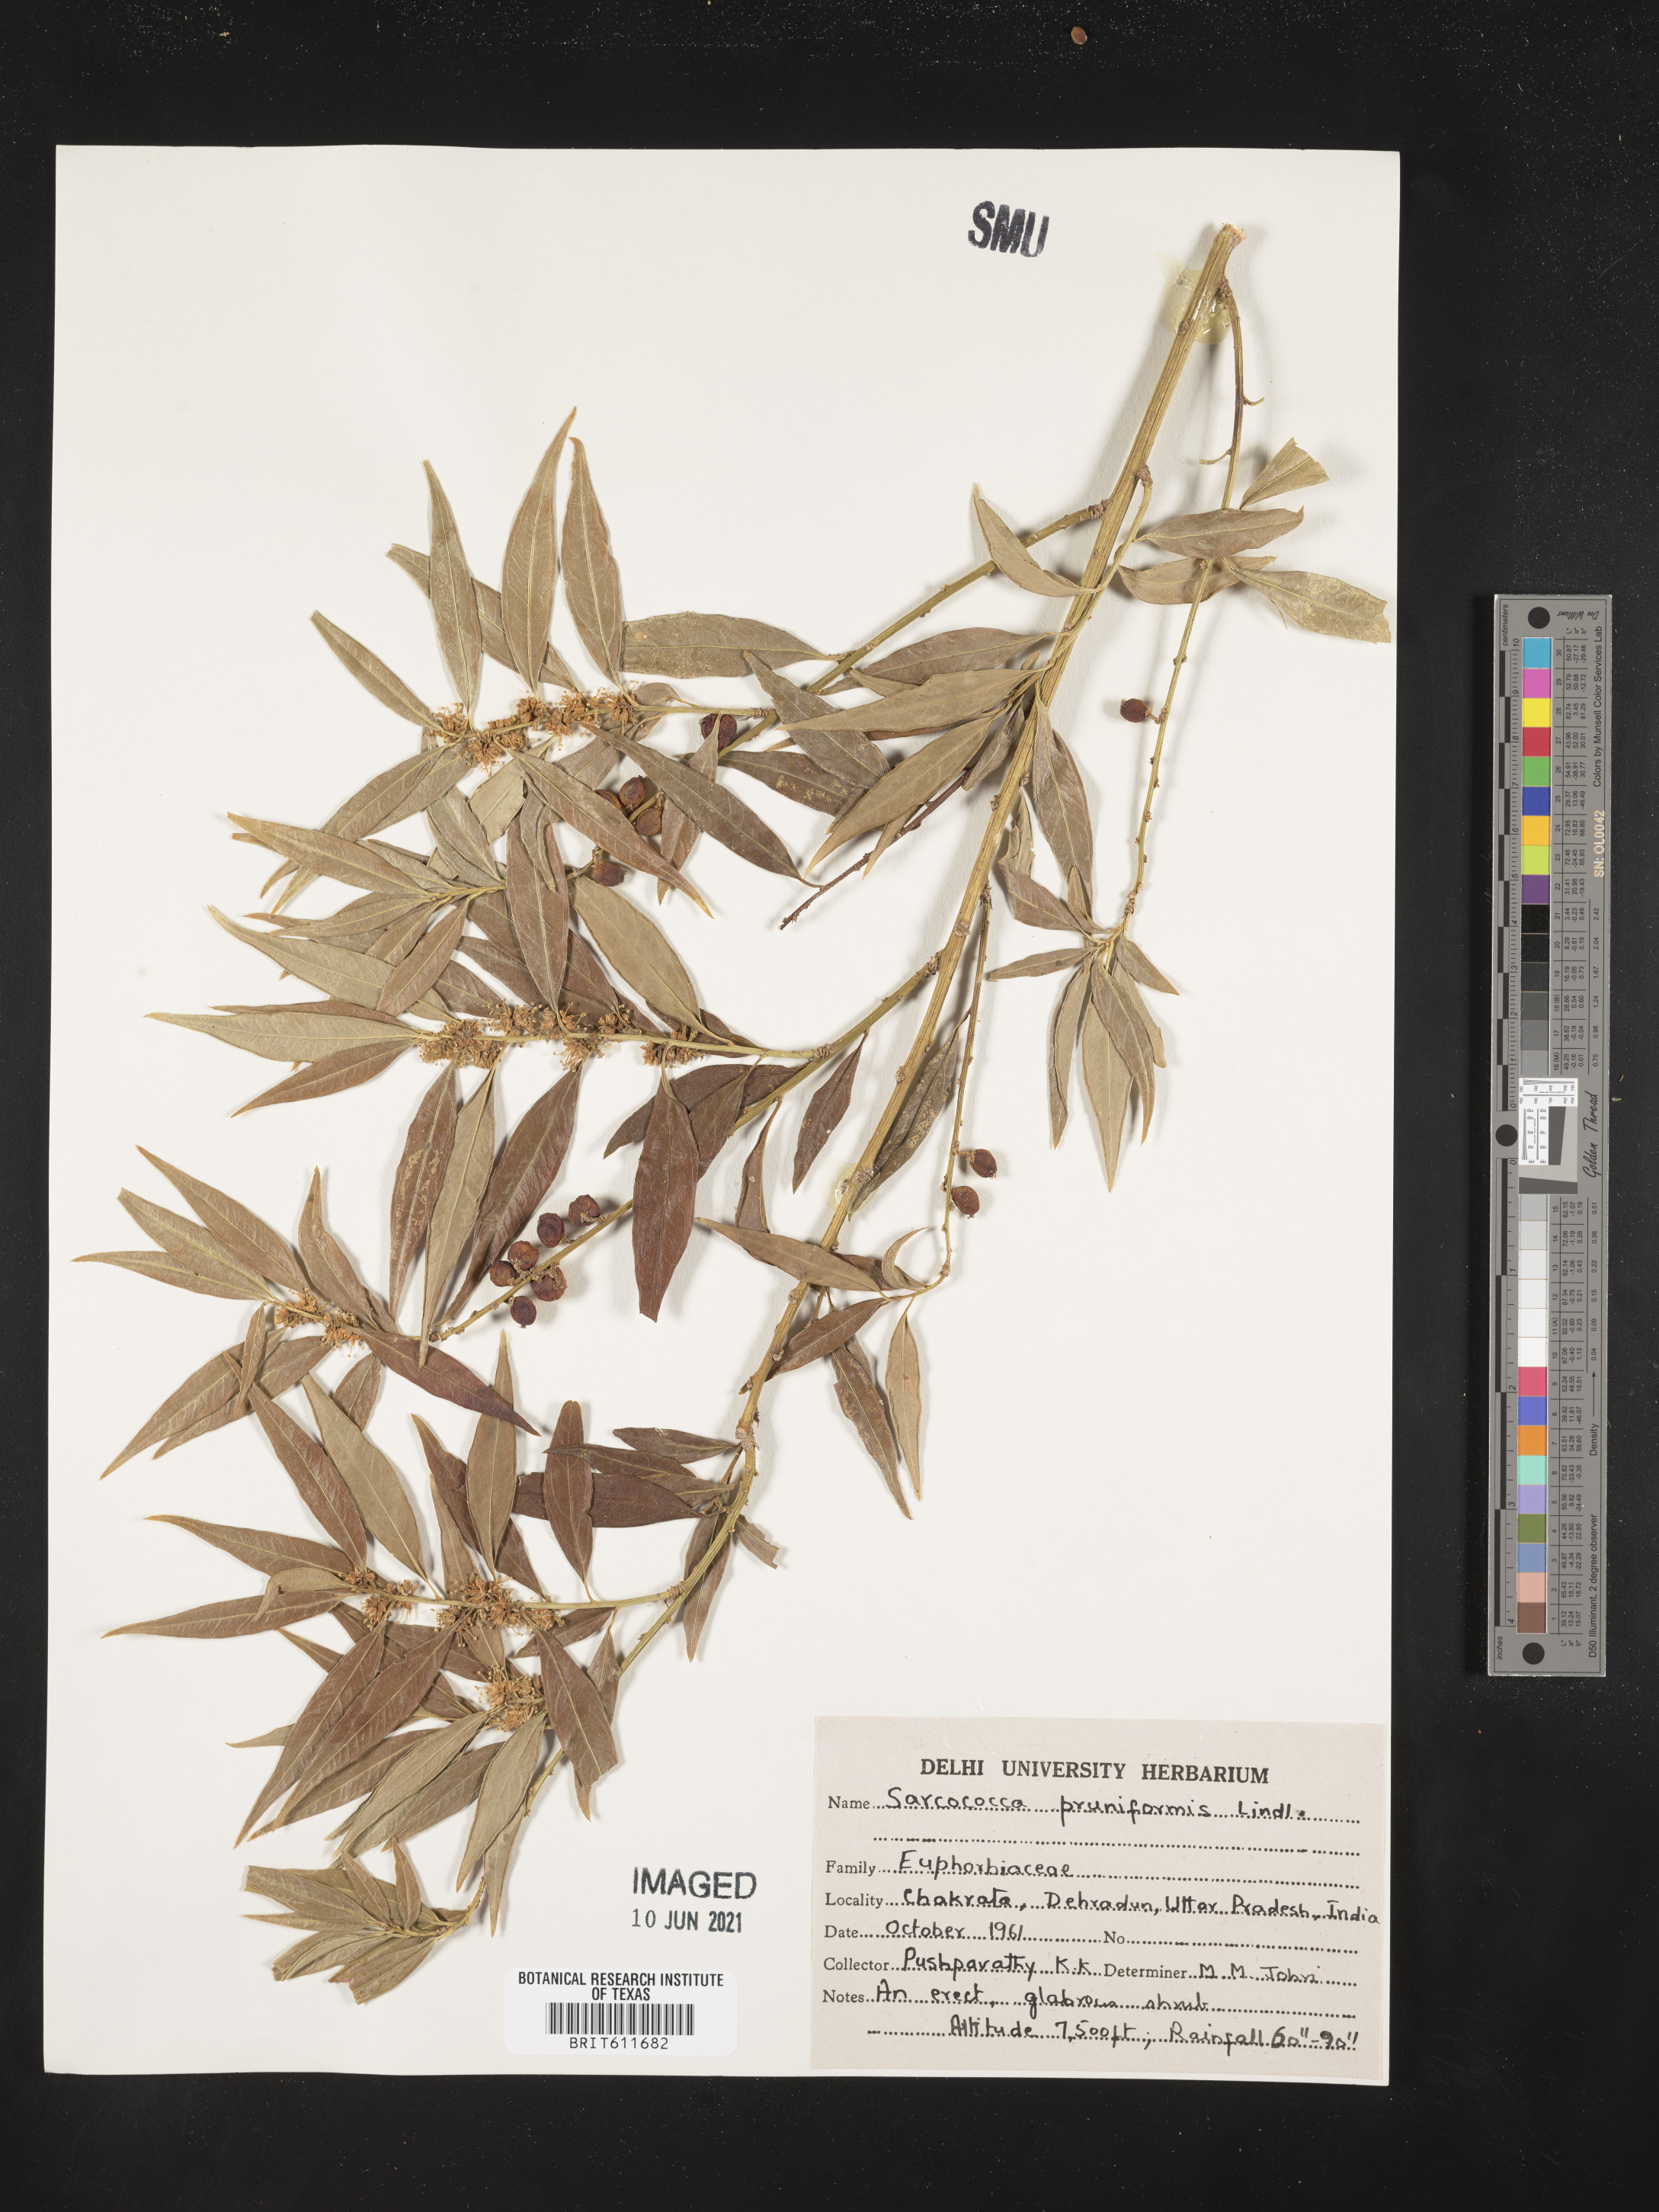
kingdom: Plantae
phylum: Tracheophyta
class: Magnoliopsida
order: Buxales
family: Buxaceae
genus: Sarcococca
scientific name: Sarcococca coriacea
